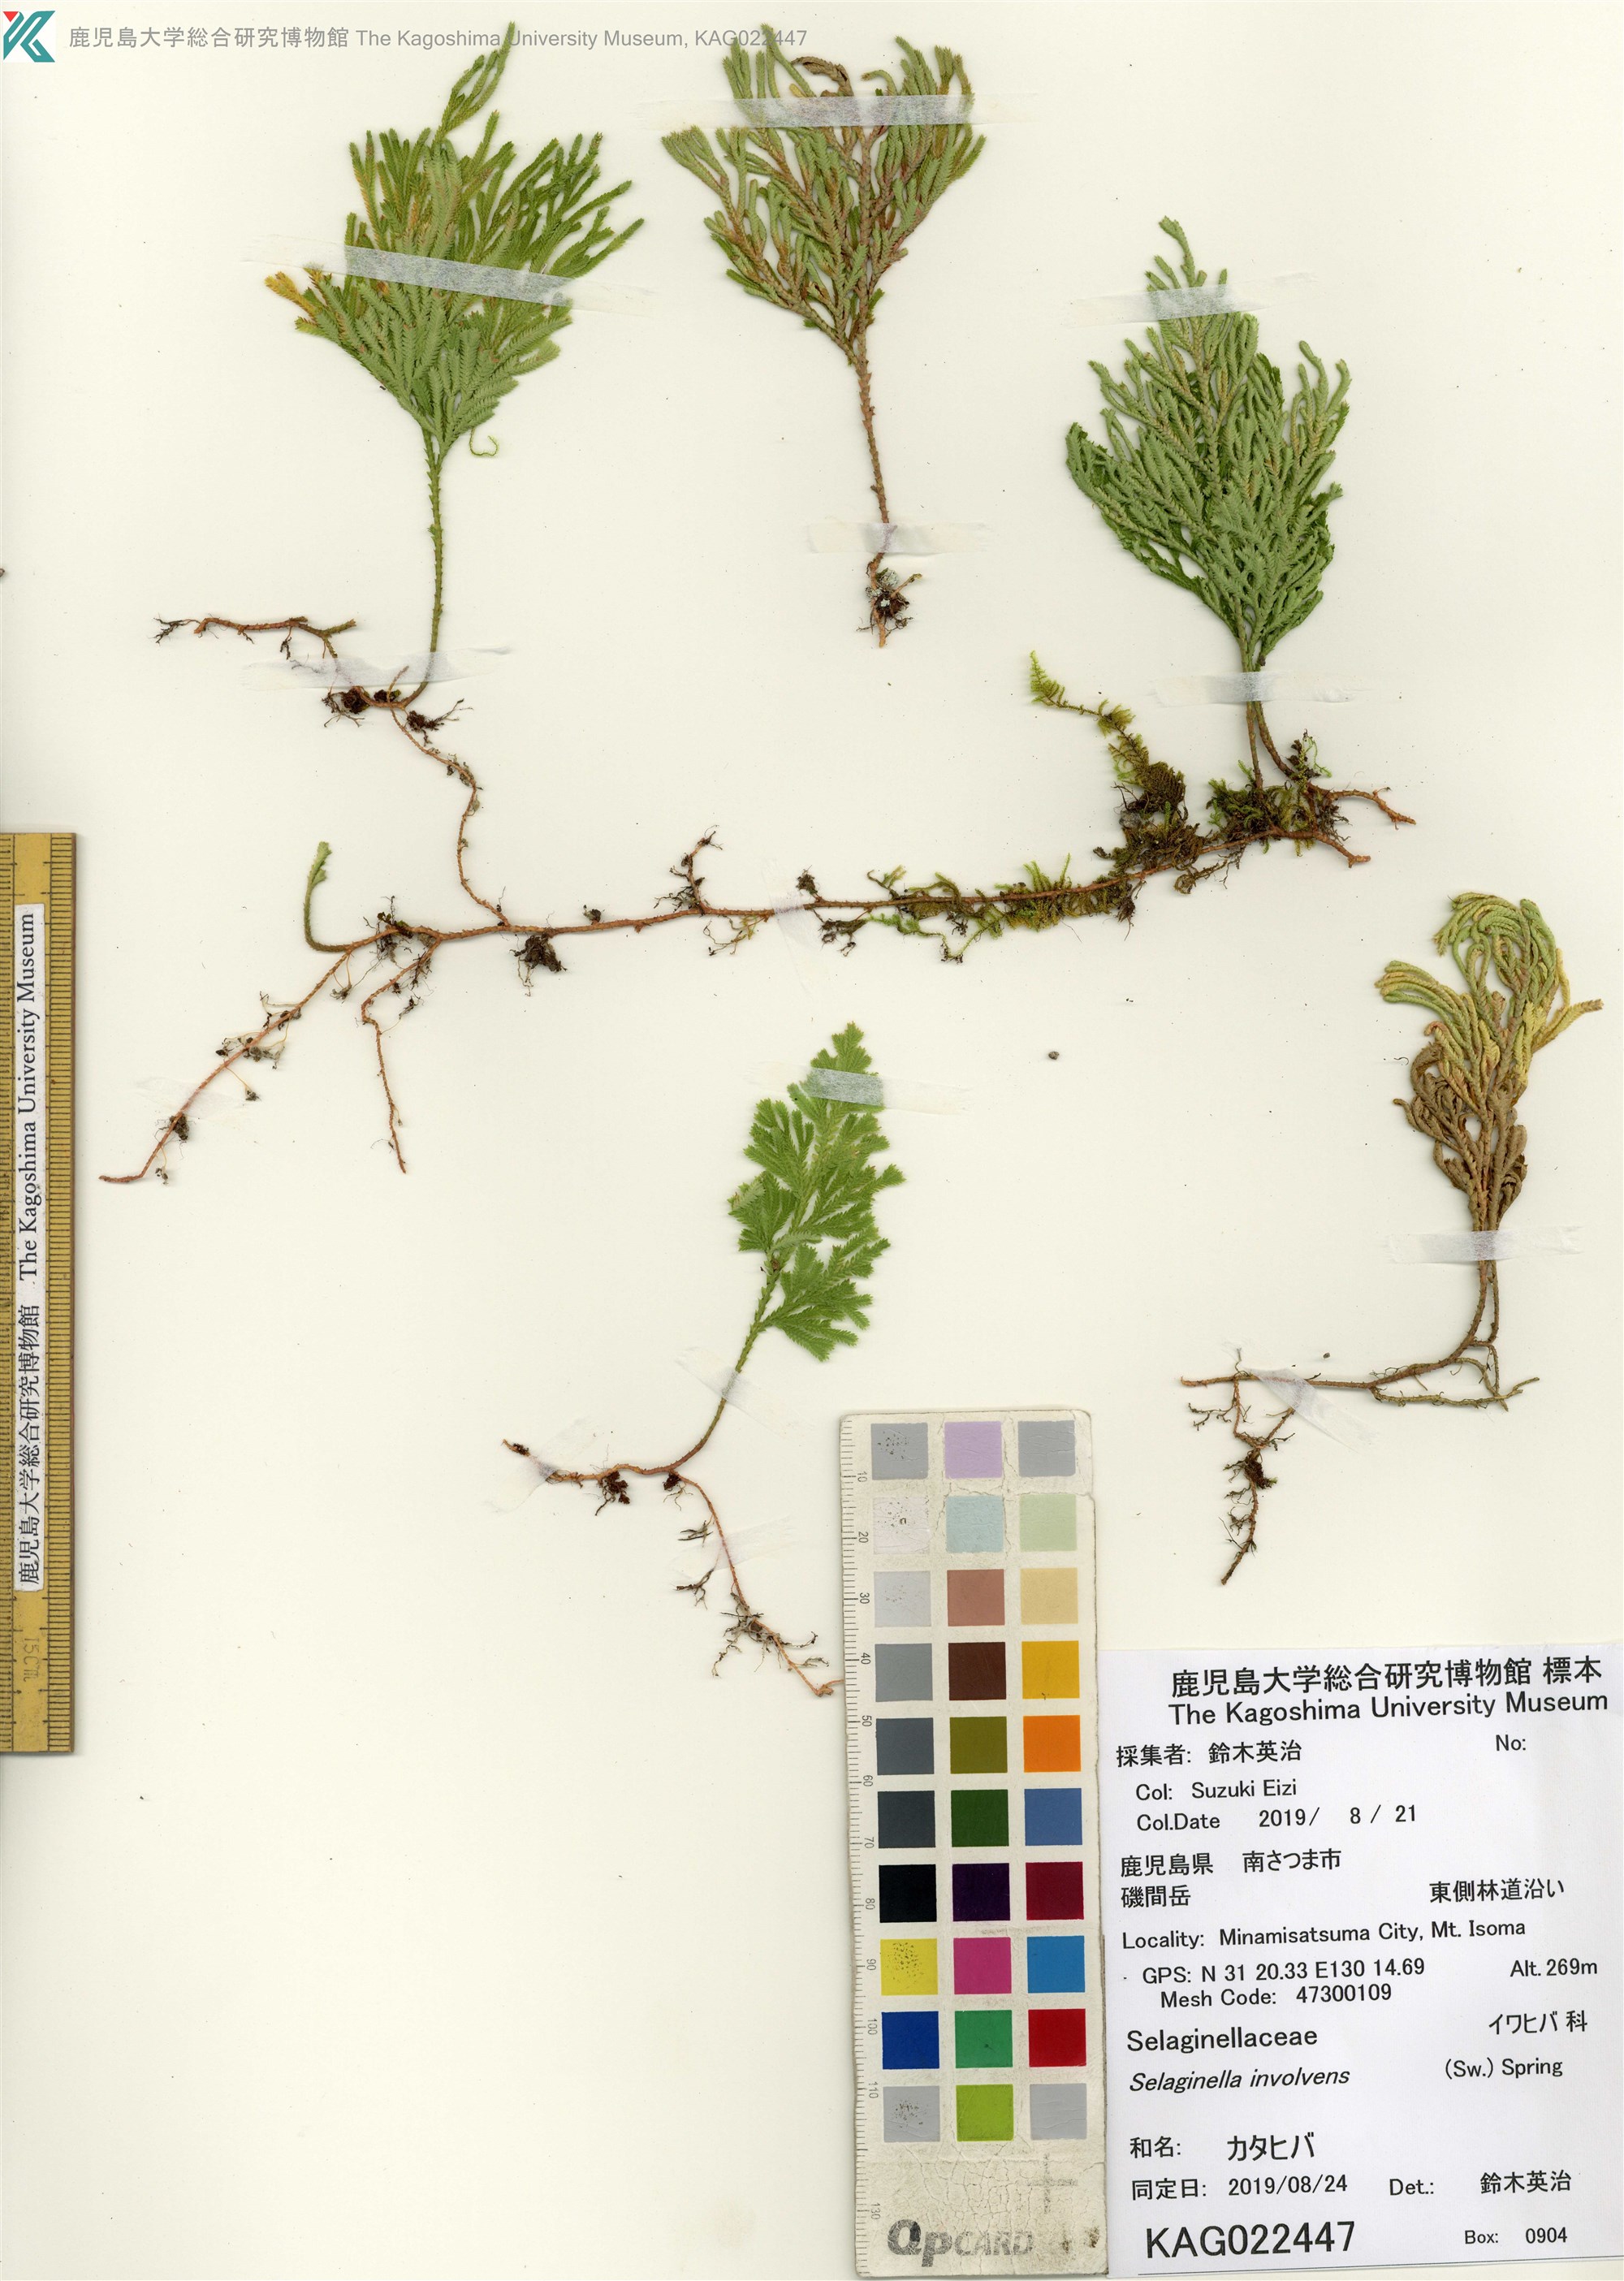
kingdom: Plantae
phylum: Tracheophyta
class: Lycopodiopsida
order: Selaginellales
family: Selaginellaceae
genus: Selaginella
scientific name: Selaginella involvens
